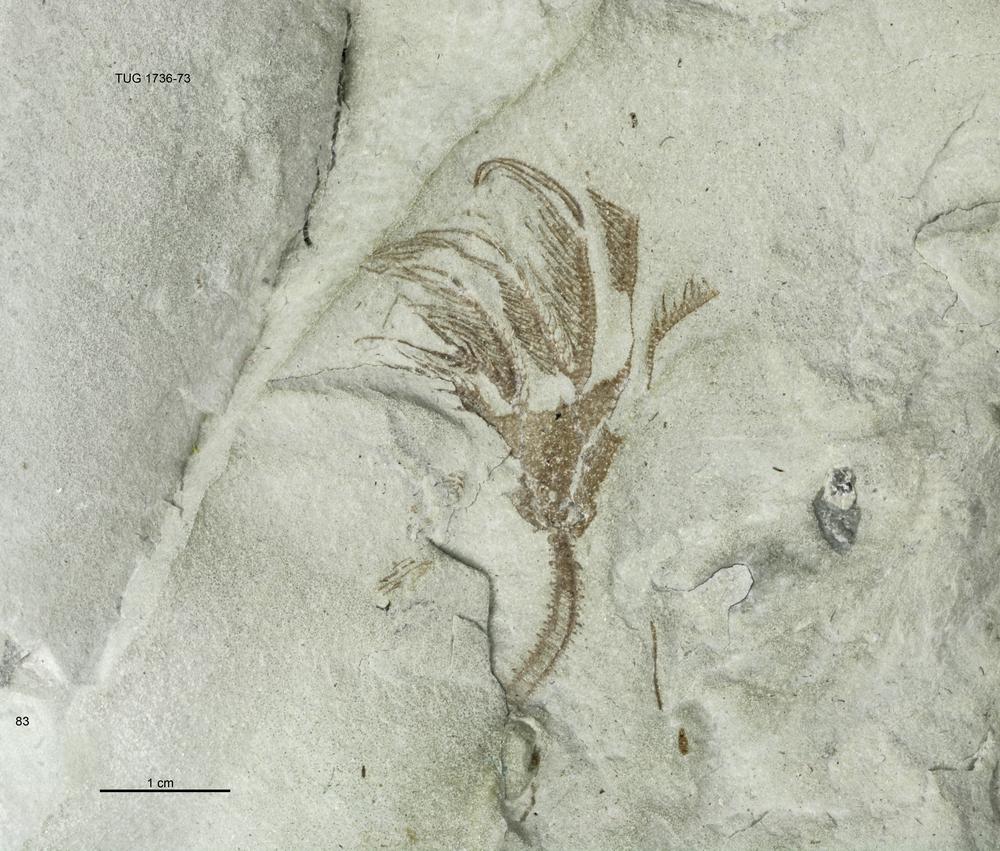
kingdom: Animalia
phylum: Echinodermata
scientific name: Echinodermata
